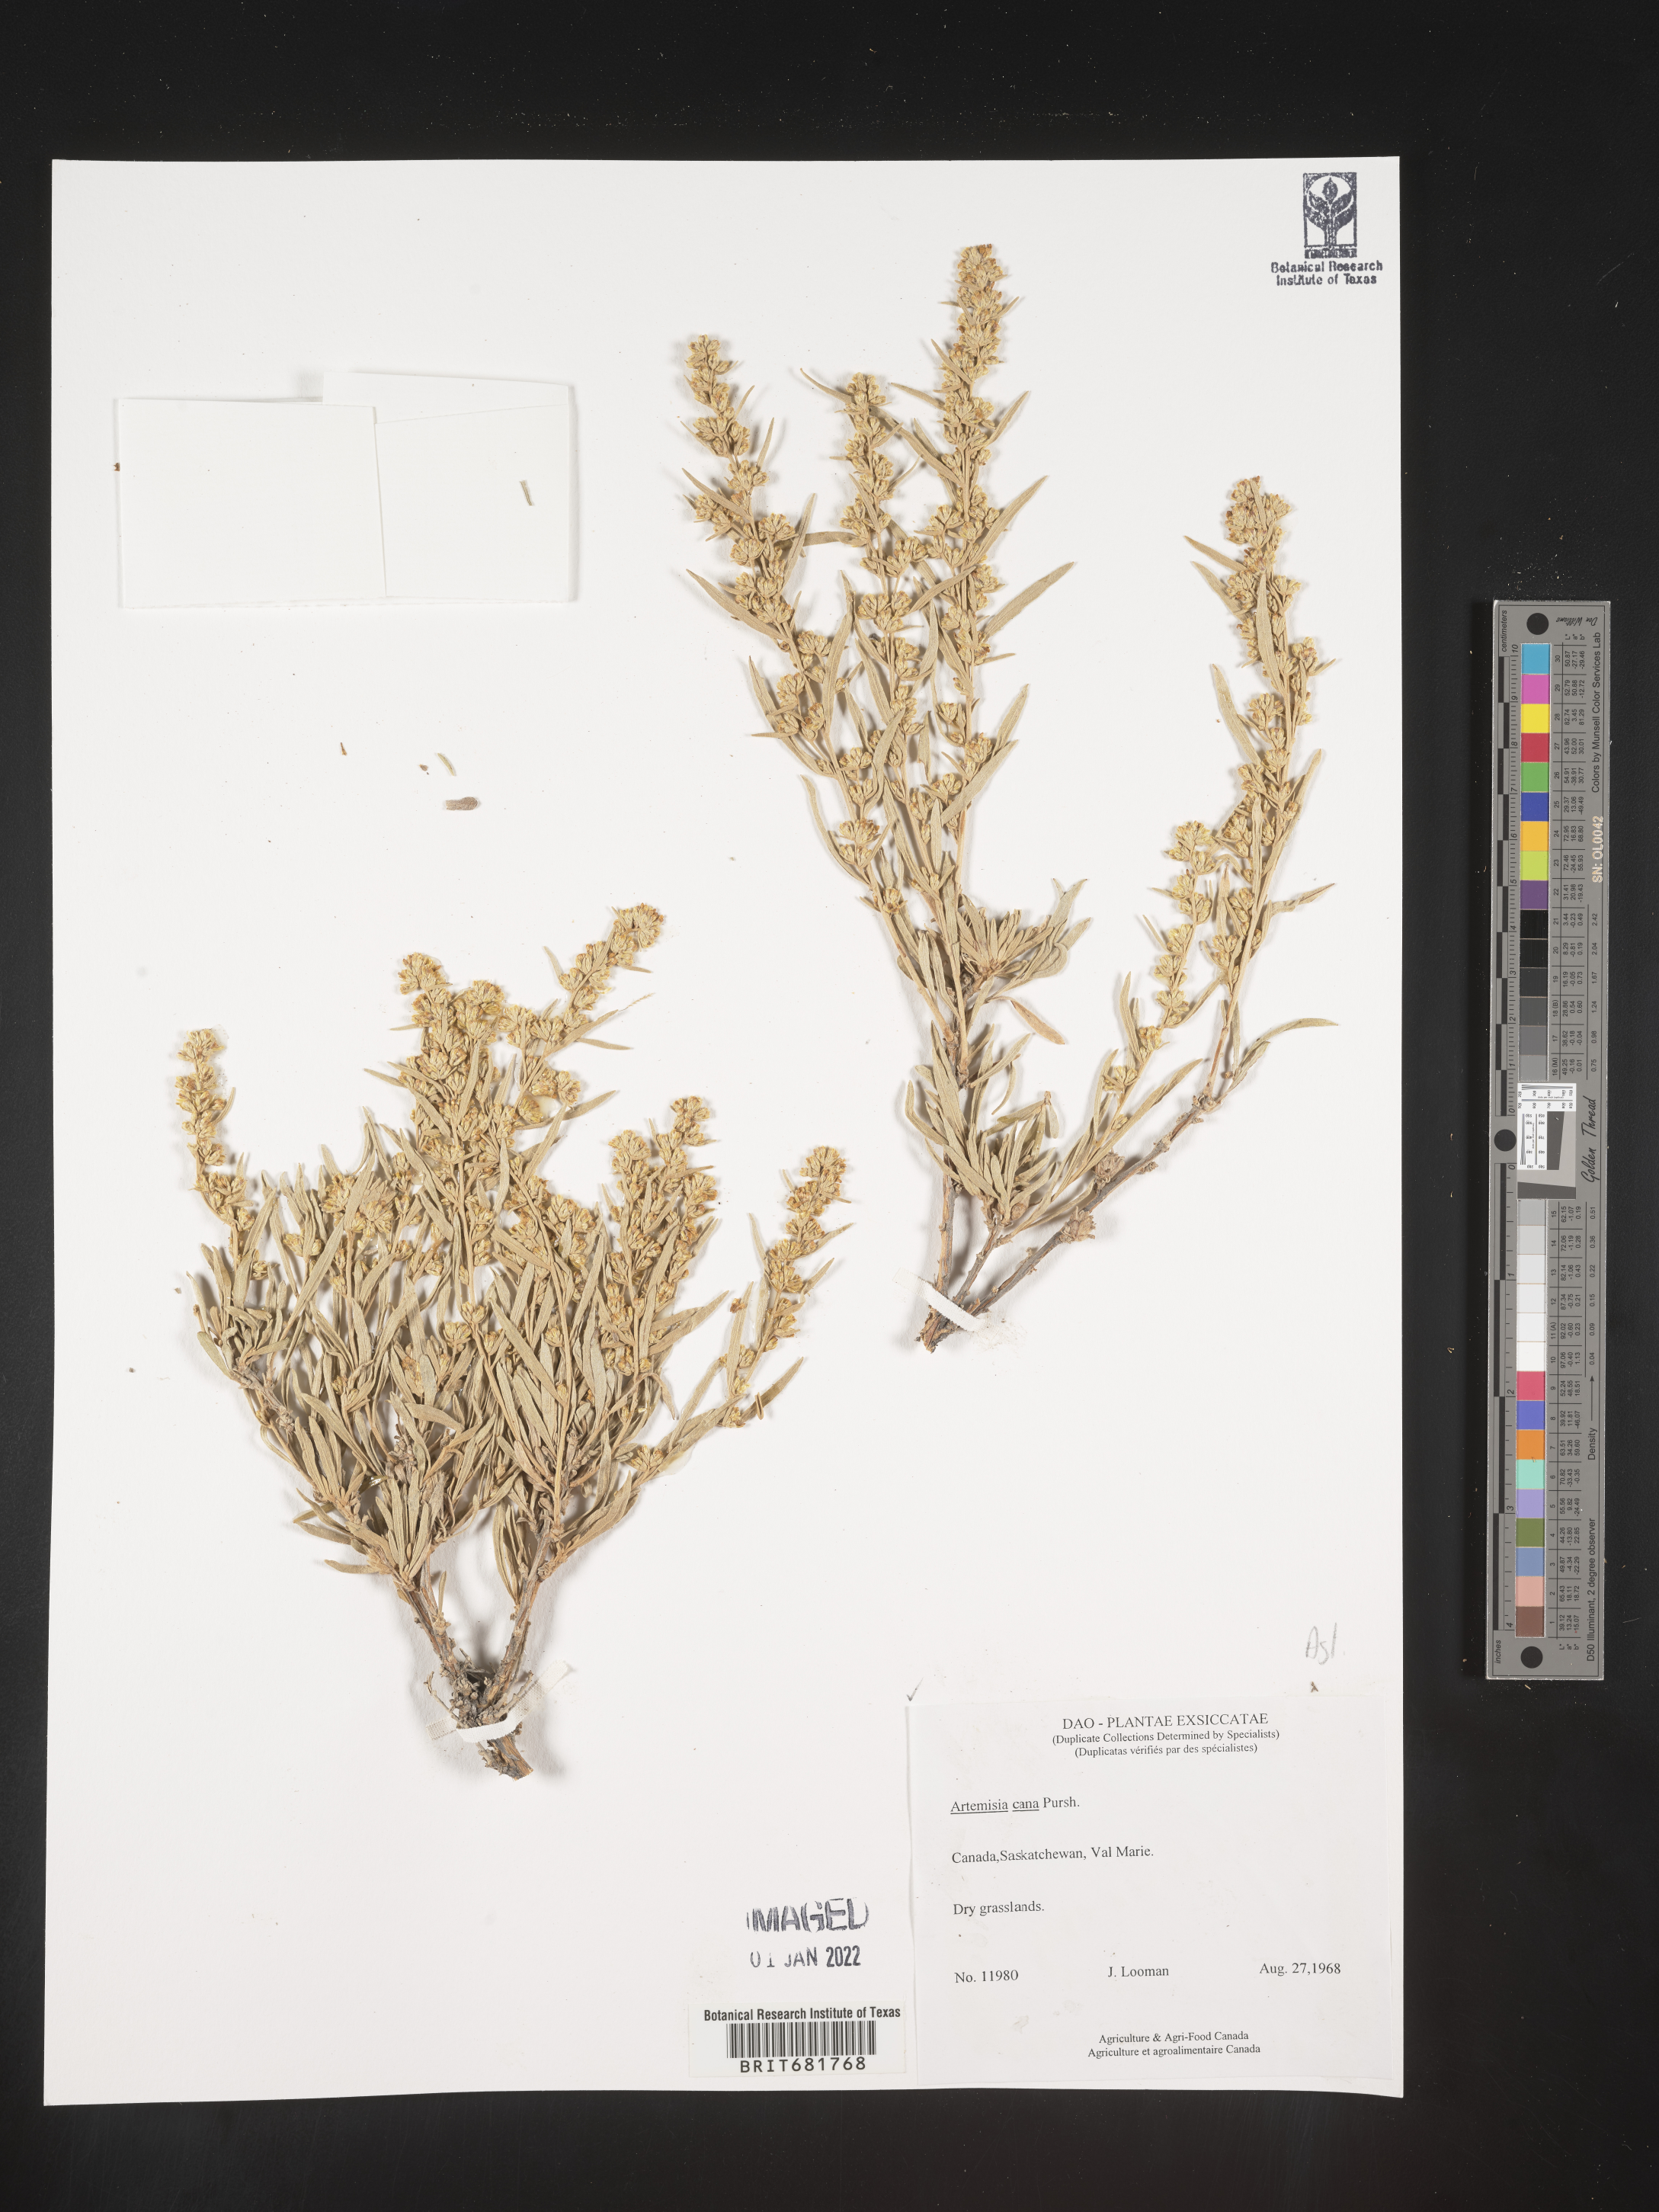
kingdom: Plantae
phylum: Tracheophyta
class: Magnoliopsida
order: Asterales
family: Asteraceae
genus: Artemisia
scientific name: Artemisia cana
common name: Silver sagebrush
